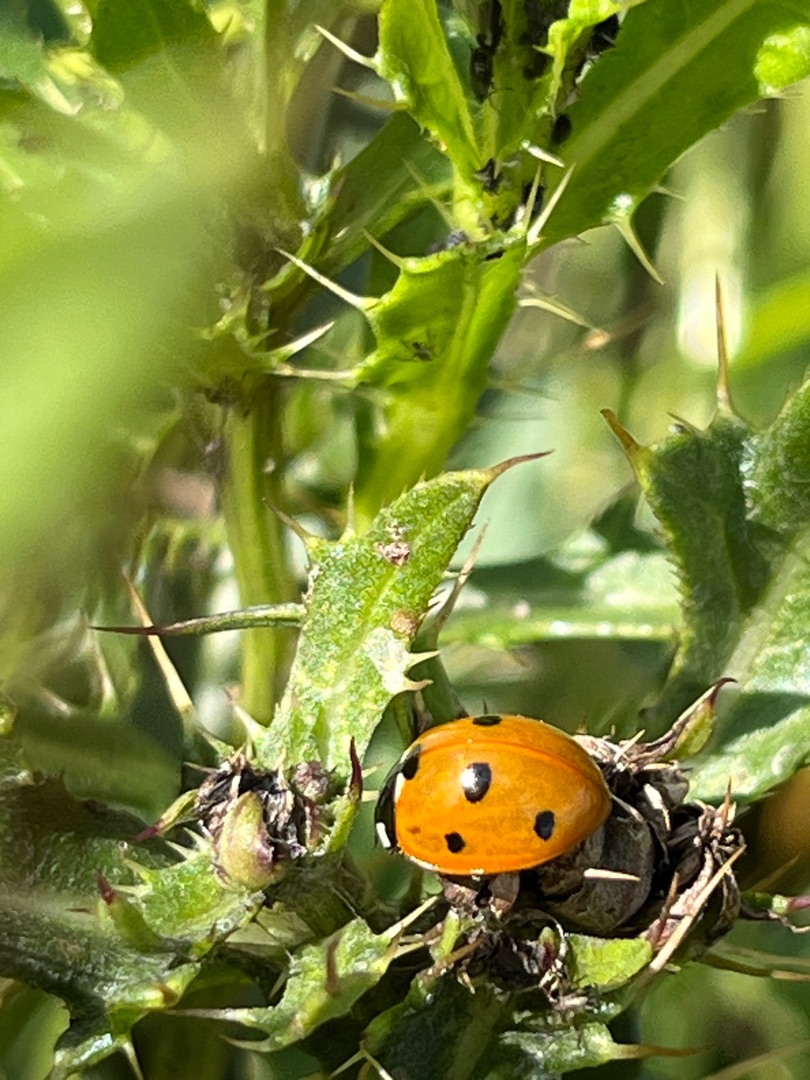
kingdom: Animalia
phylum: Arthropoda
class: Insecta
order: Coleoptera
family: Coccinellidae
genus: Coccinella
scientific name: Coccinella septempunctata
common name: Syvplettet mariehøne
